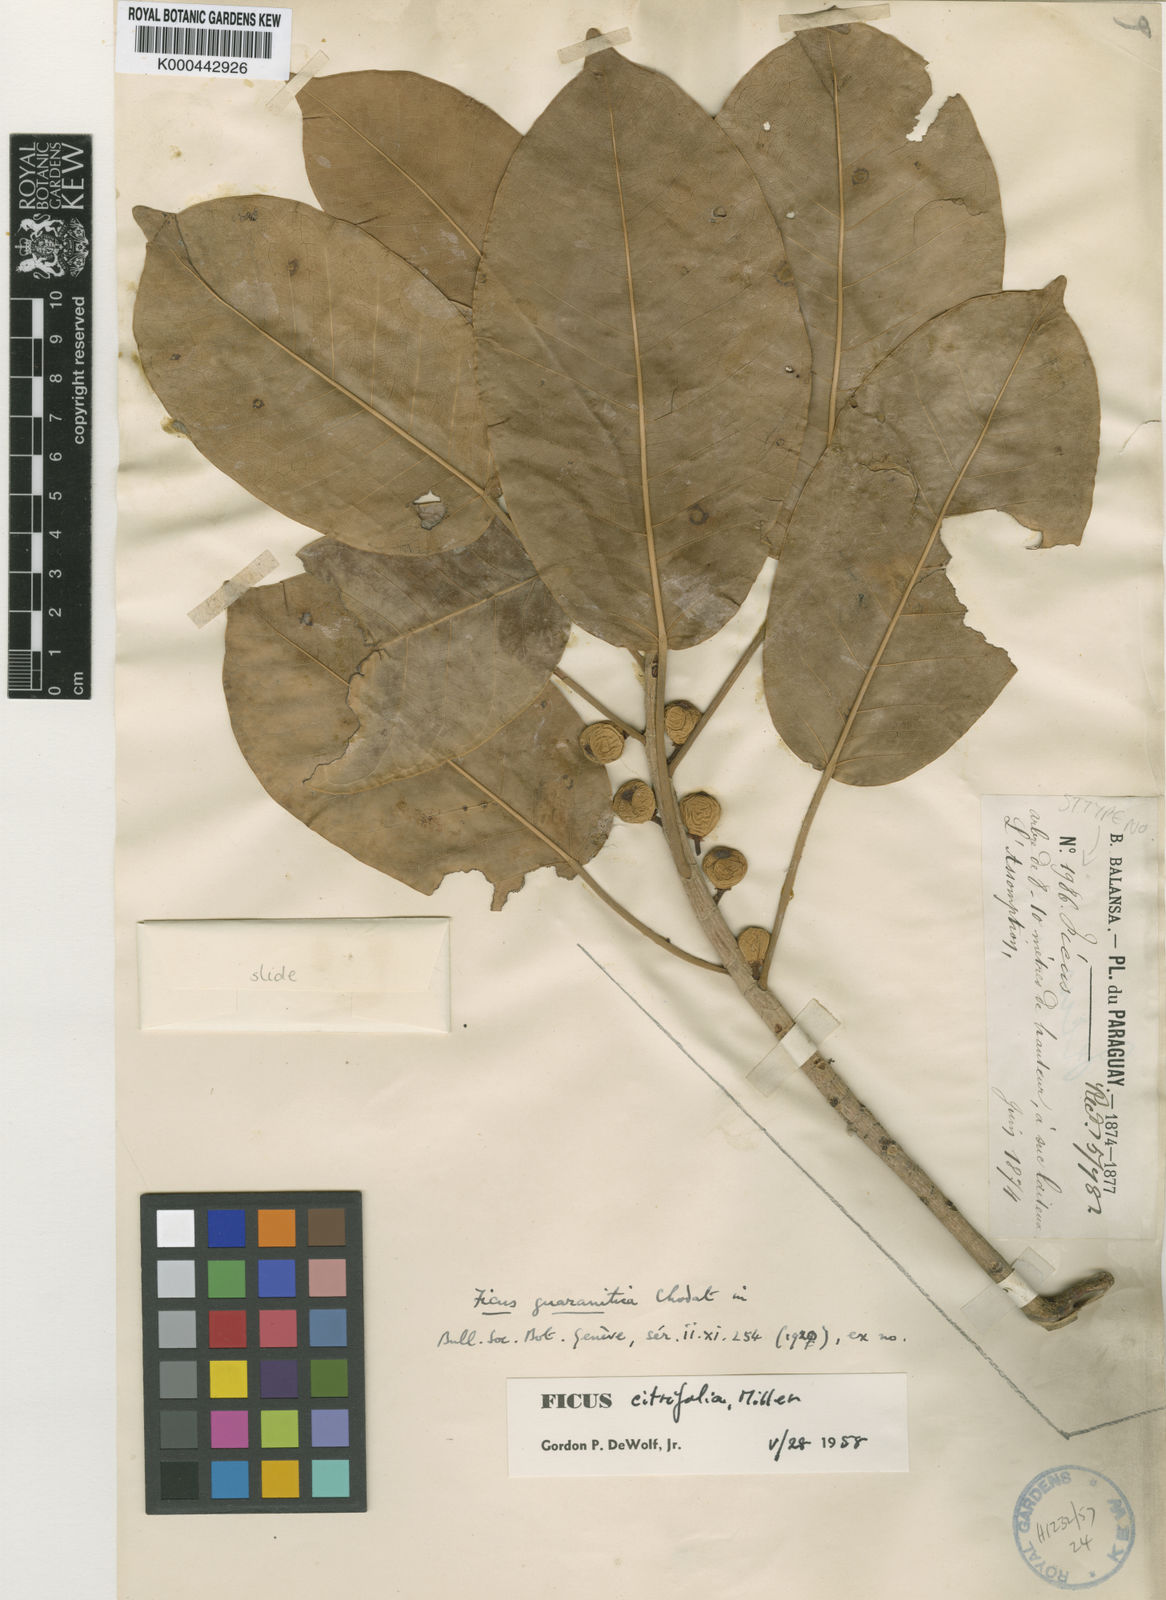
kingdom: Plantae
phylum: Tracheophyta
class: Magnoliopsida
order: Rosales
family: Moraceae
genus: Ficus
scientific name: Ficus citrifolia
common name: Strangler fig
